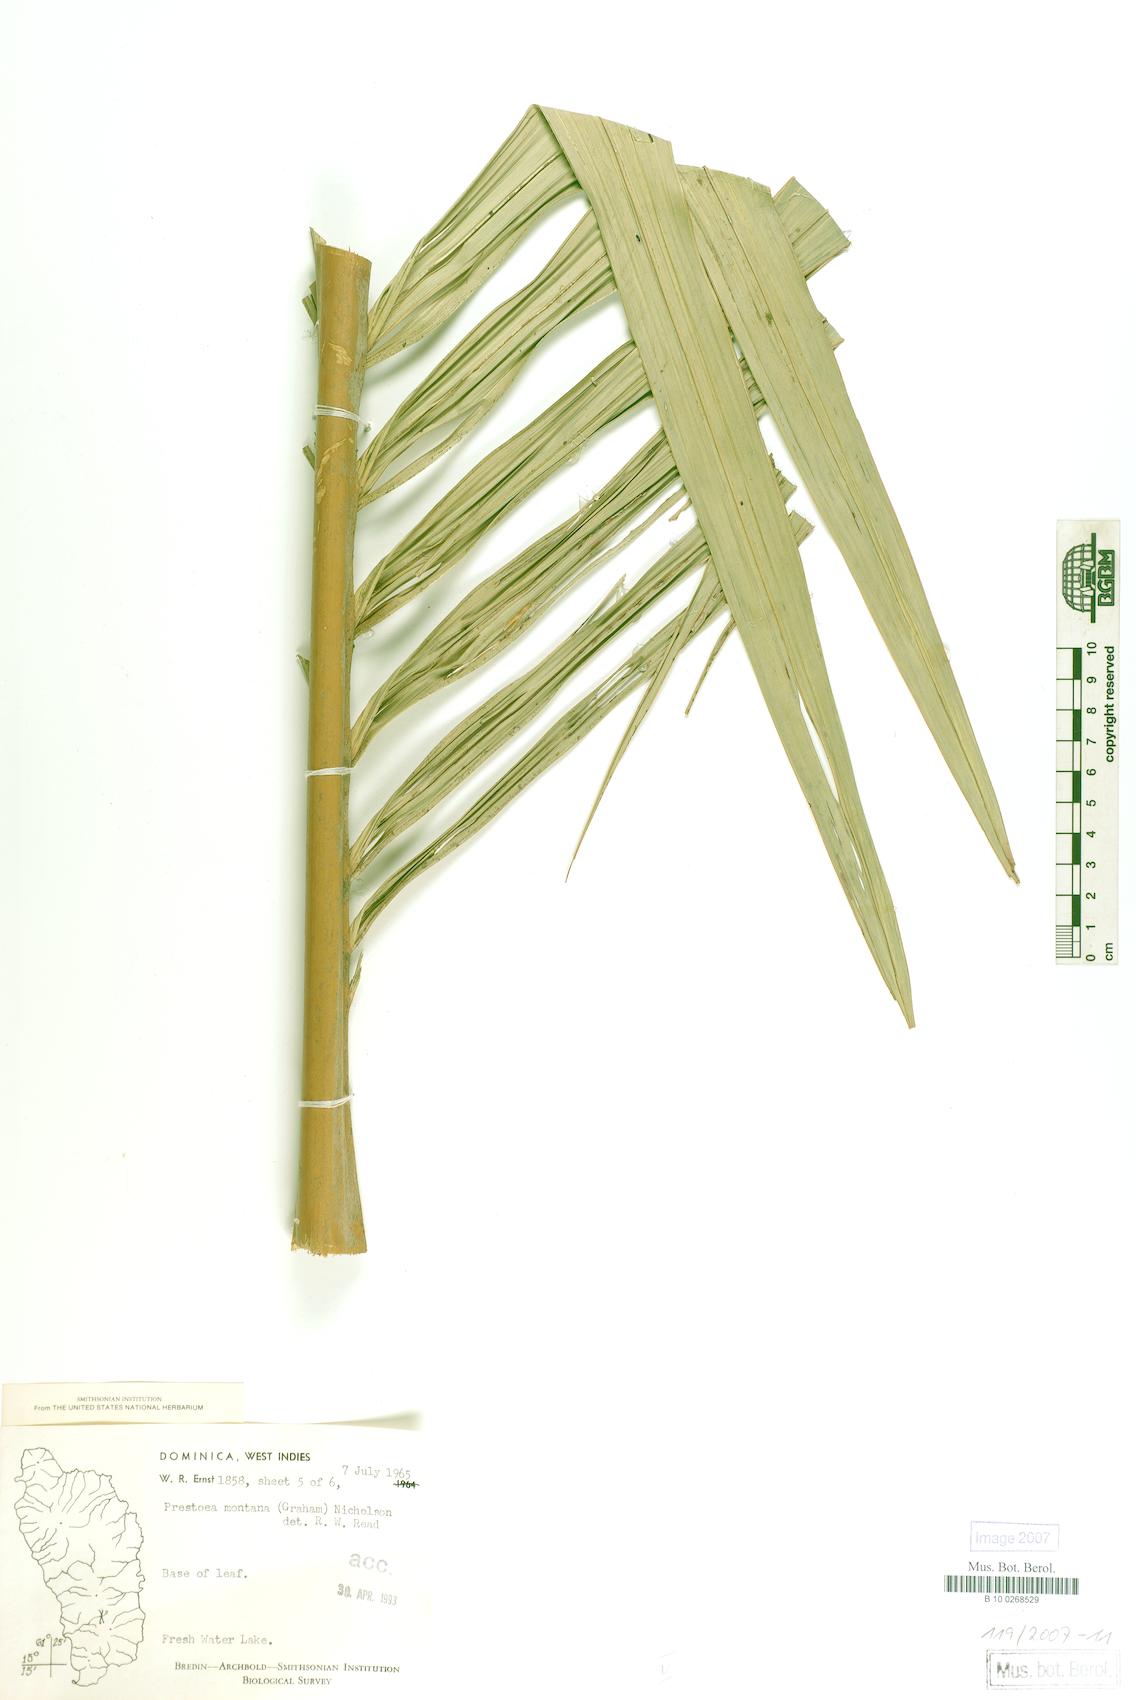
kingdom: Plantae
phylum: Tracheophyta
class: Liliopsida
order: Arecales
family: Arecaceae
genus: Prestoea
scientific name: Prestoea acuminata
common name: Sierran palm
